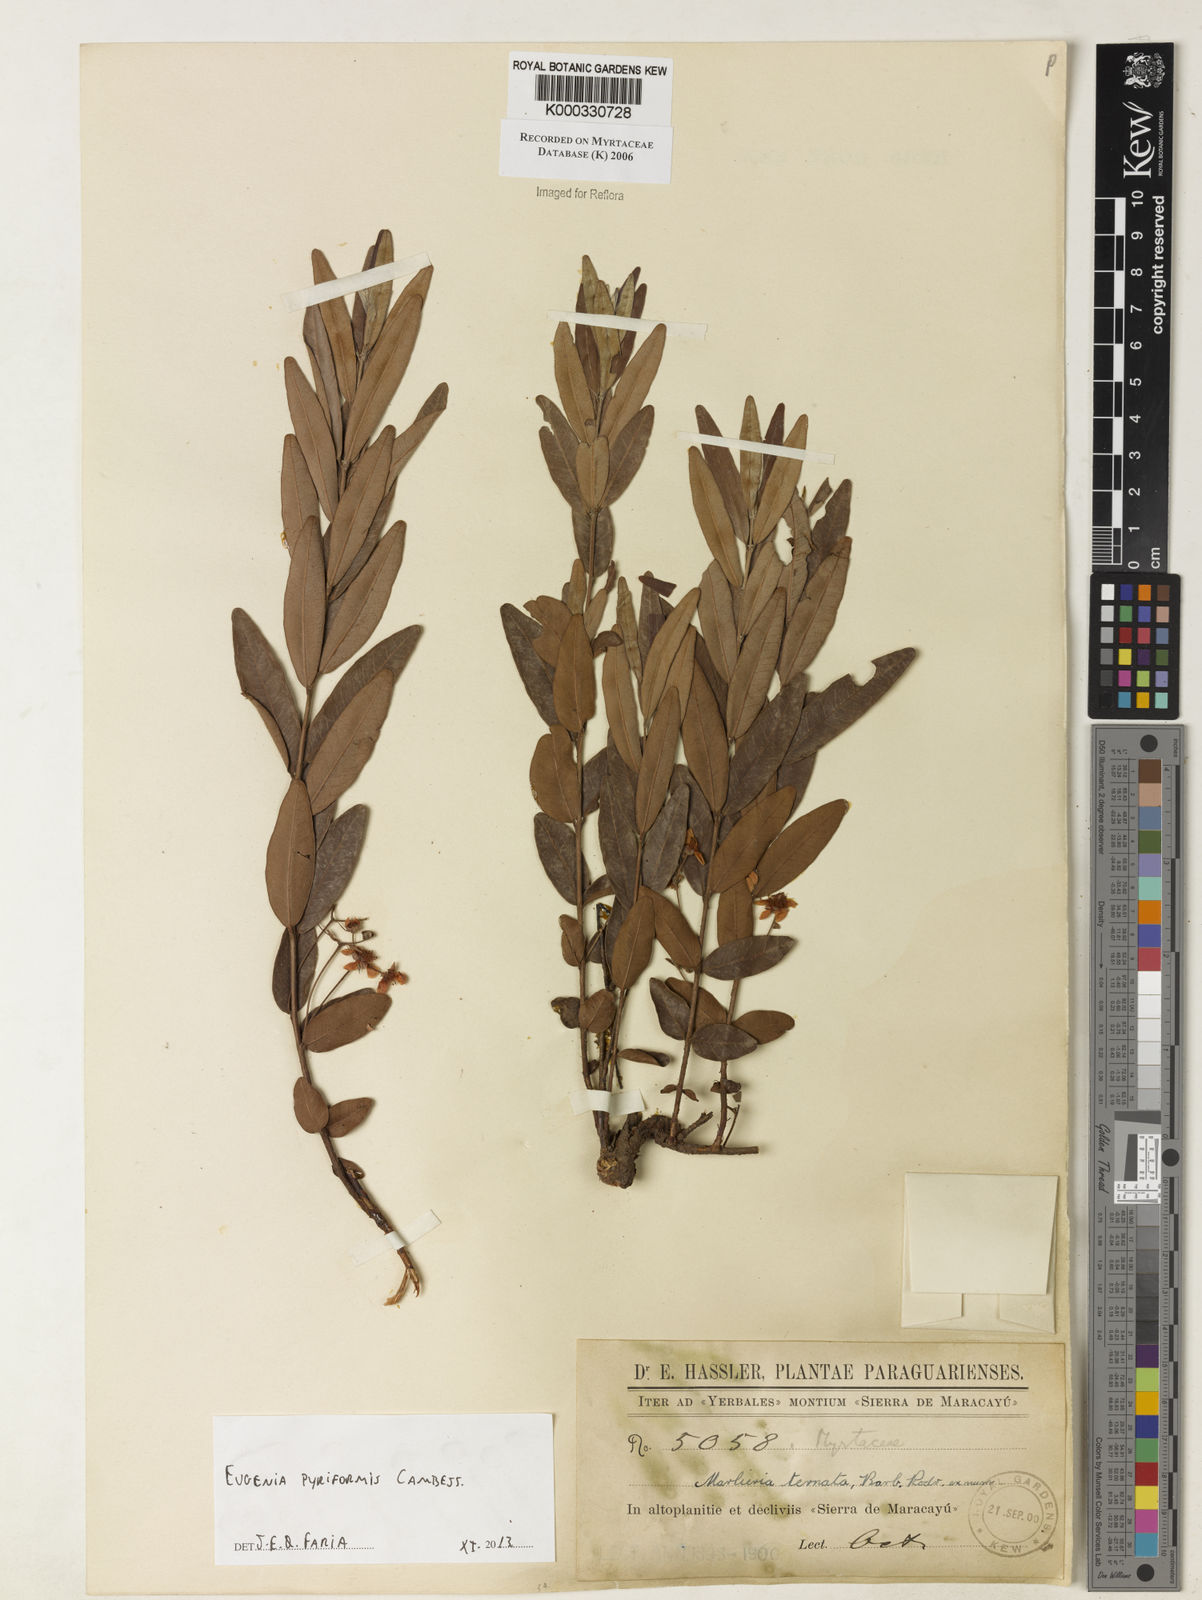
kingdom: Plantae
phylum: Tracheophyta
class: Magnoliopsida
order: Myrtales
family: Myrtaceae
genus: Eugenia
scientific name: Eugenia pyriformis
